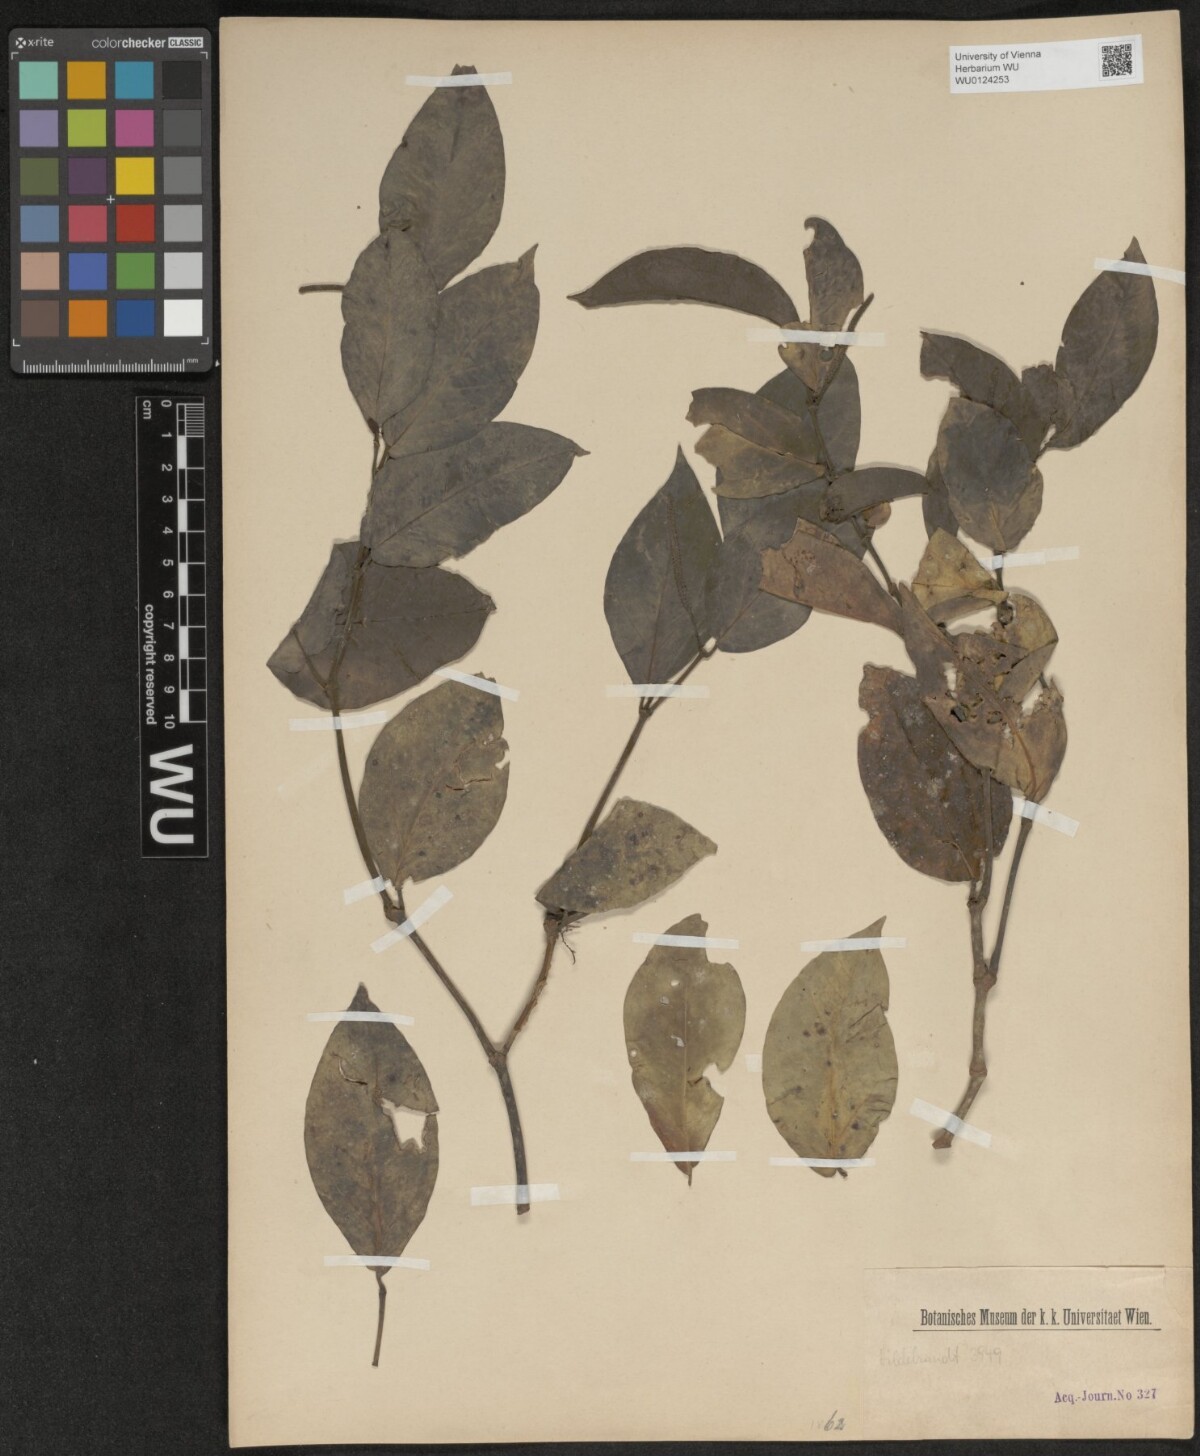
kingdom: Plantae
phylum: Tracheophyta
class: Magnoliopsida
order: Piperales
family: Piperaceae
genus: Piper
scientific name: Piper
